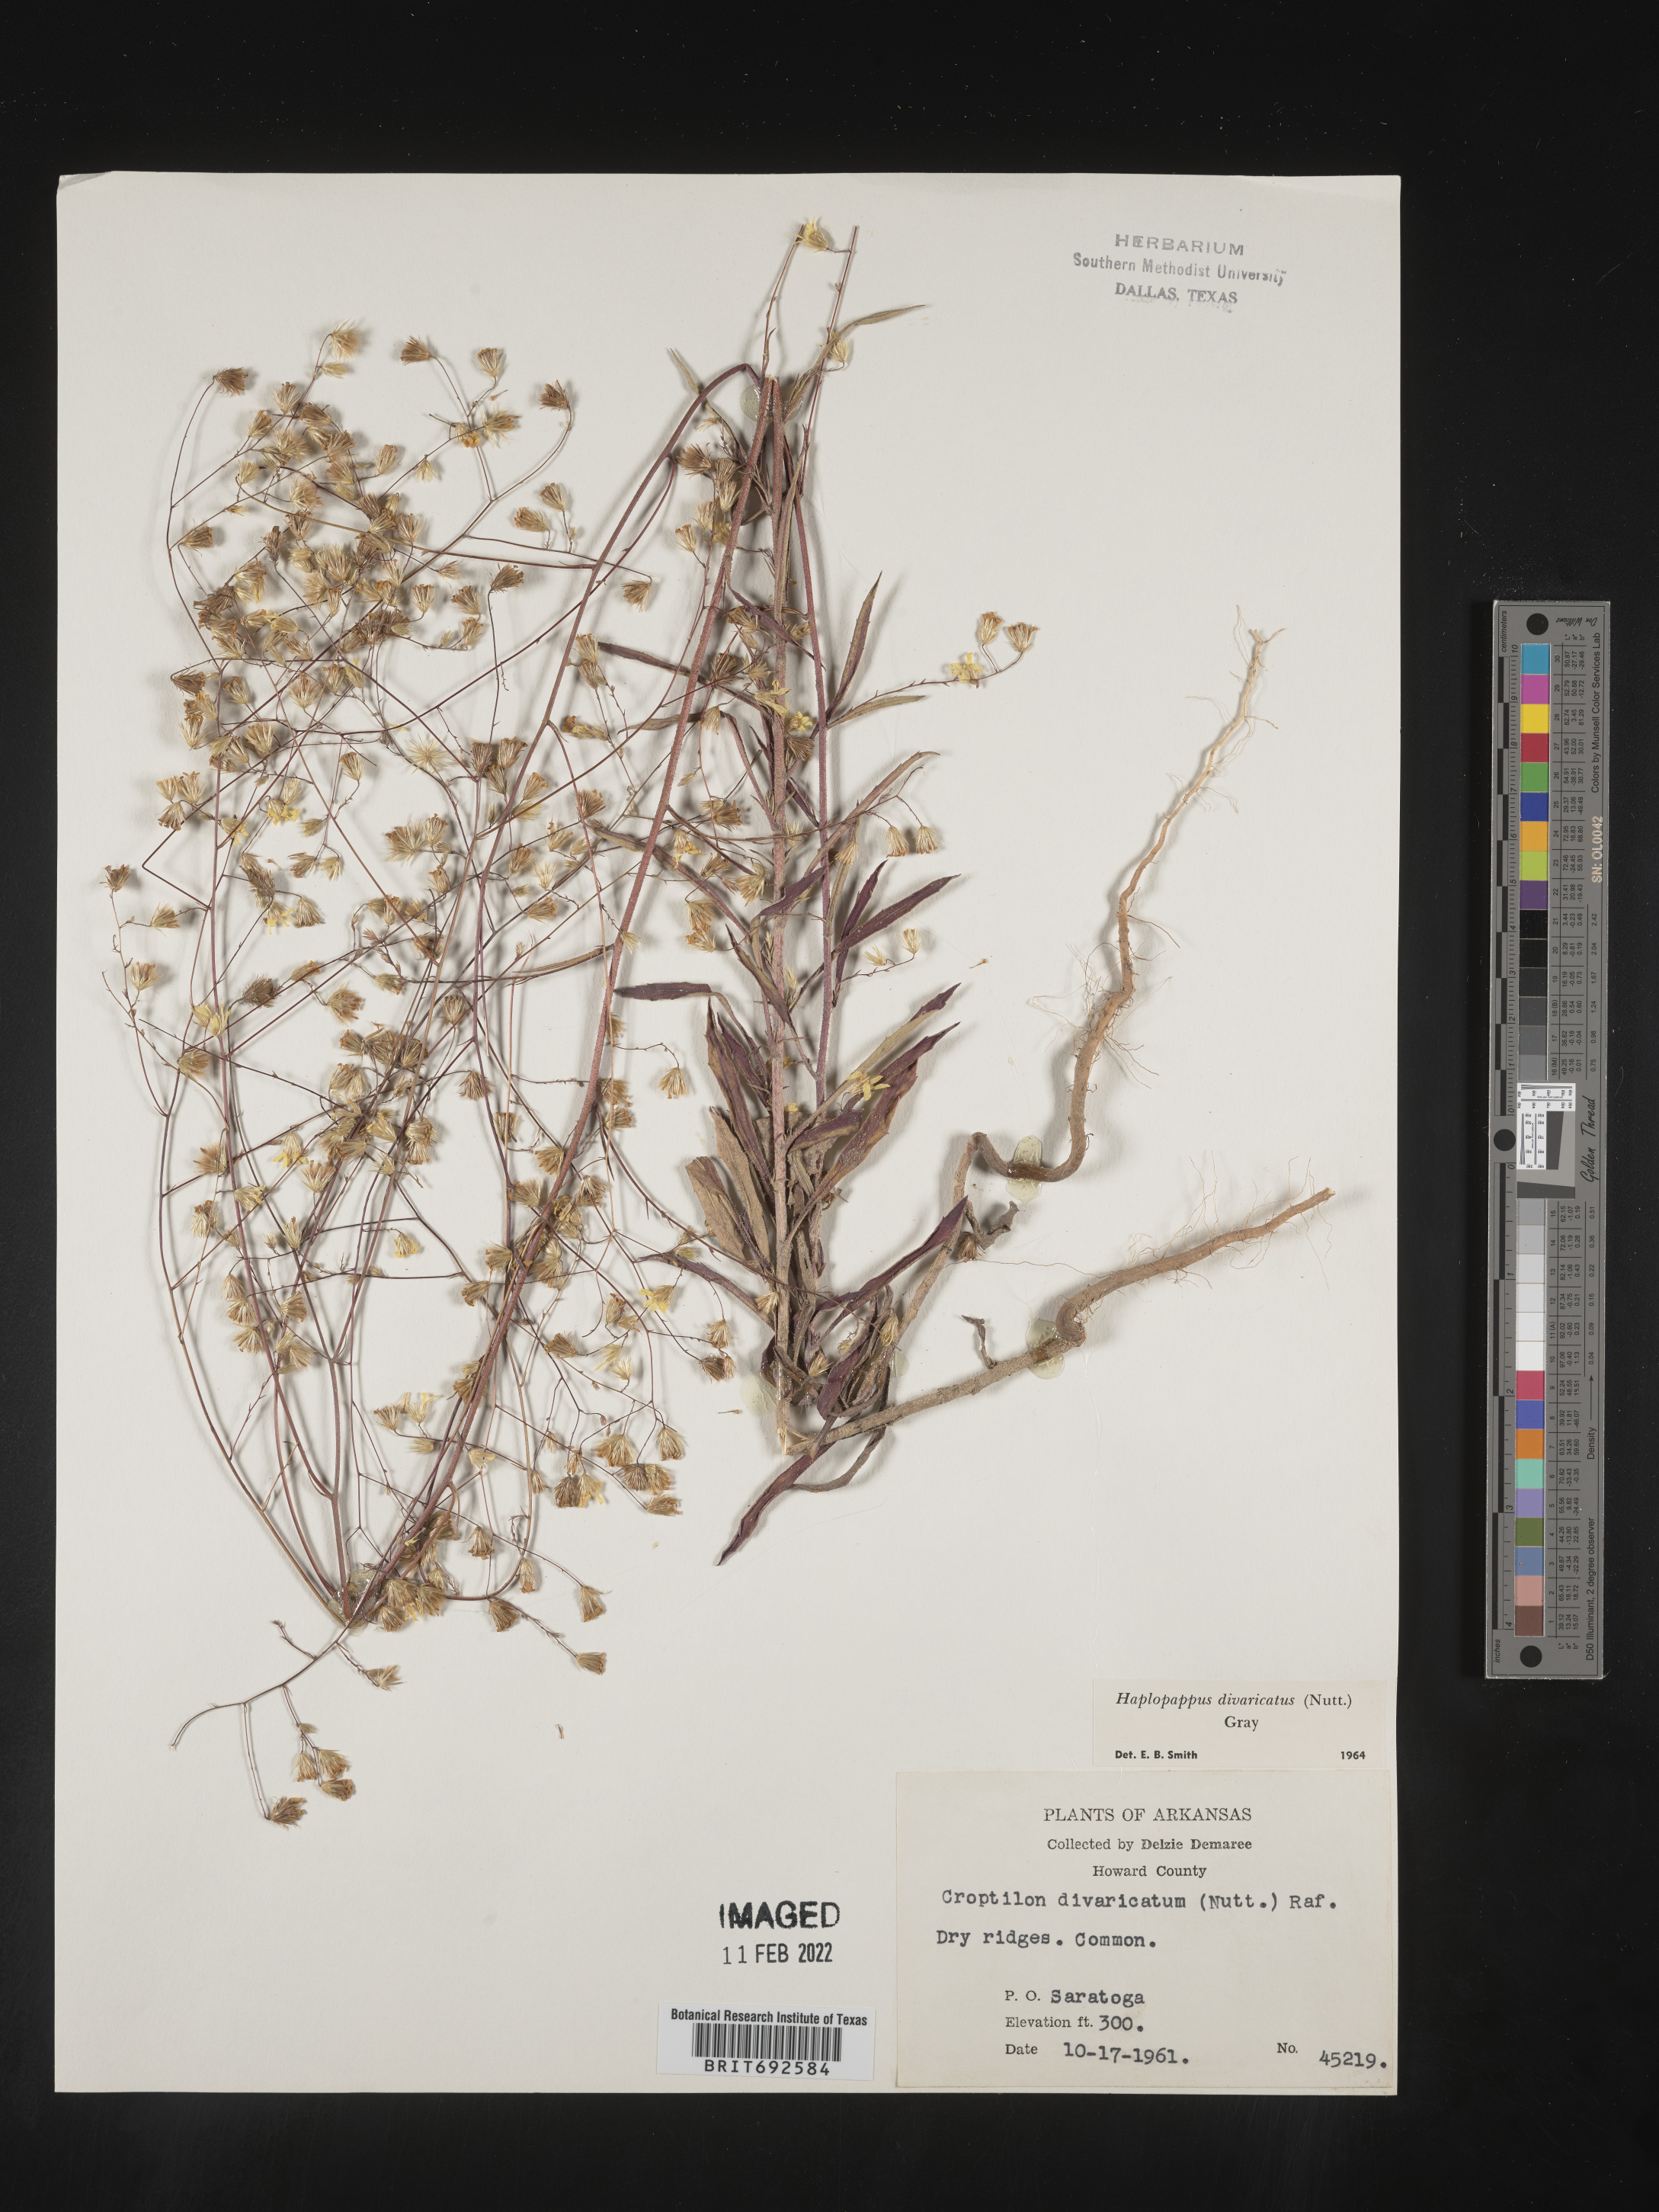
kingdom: Plantae
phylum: Tracheophyta
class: Magnoliopsida
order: Asterales
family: Asteraceae
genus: Croptilon
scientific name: Croptilon divaricatum
